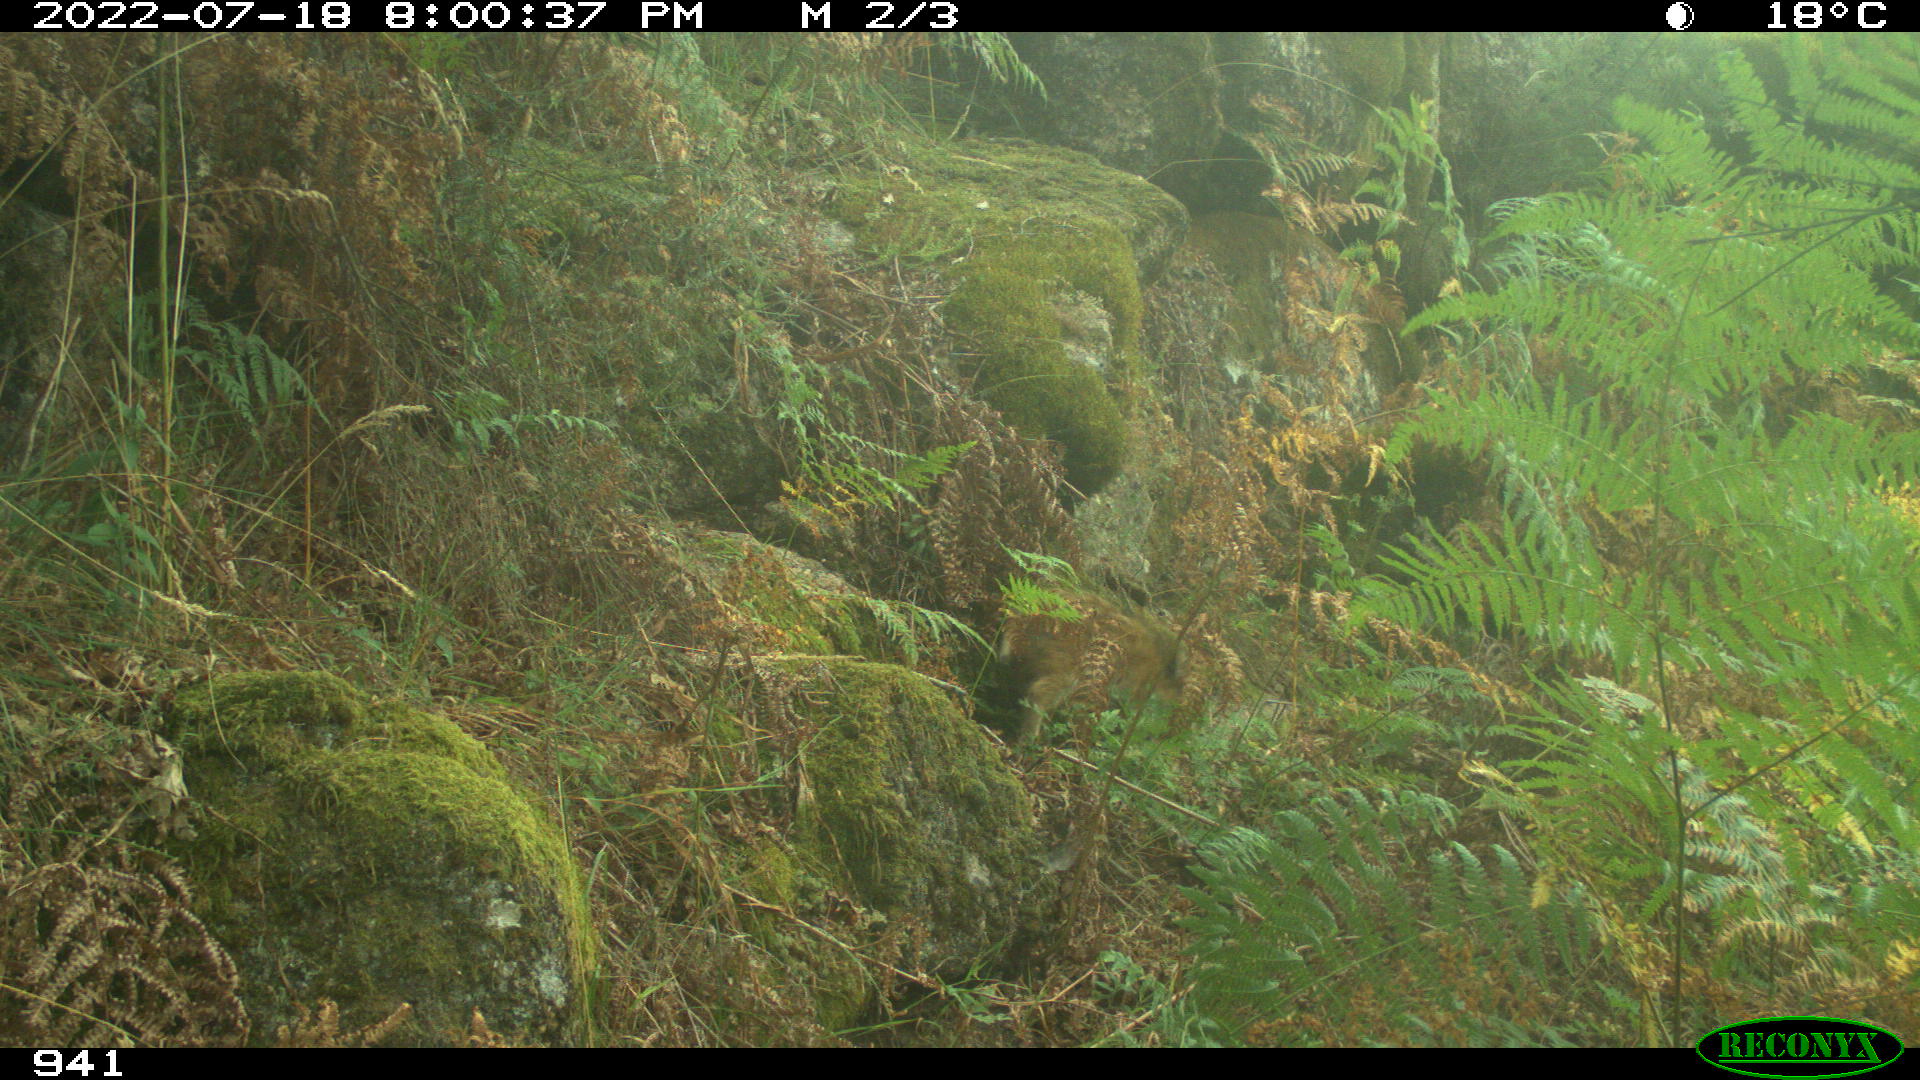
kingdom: Animalia
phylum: Chordata
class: Mammalia
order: Artiodactyla
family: Suidae
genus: Sus
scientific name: Sus scrofa
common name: Wild boar
